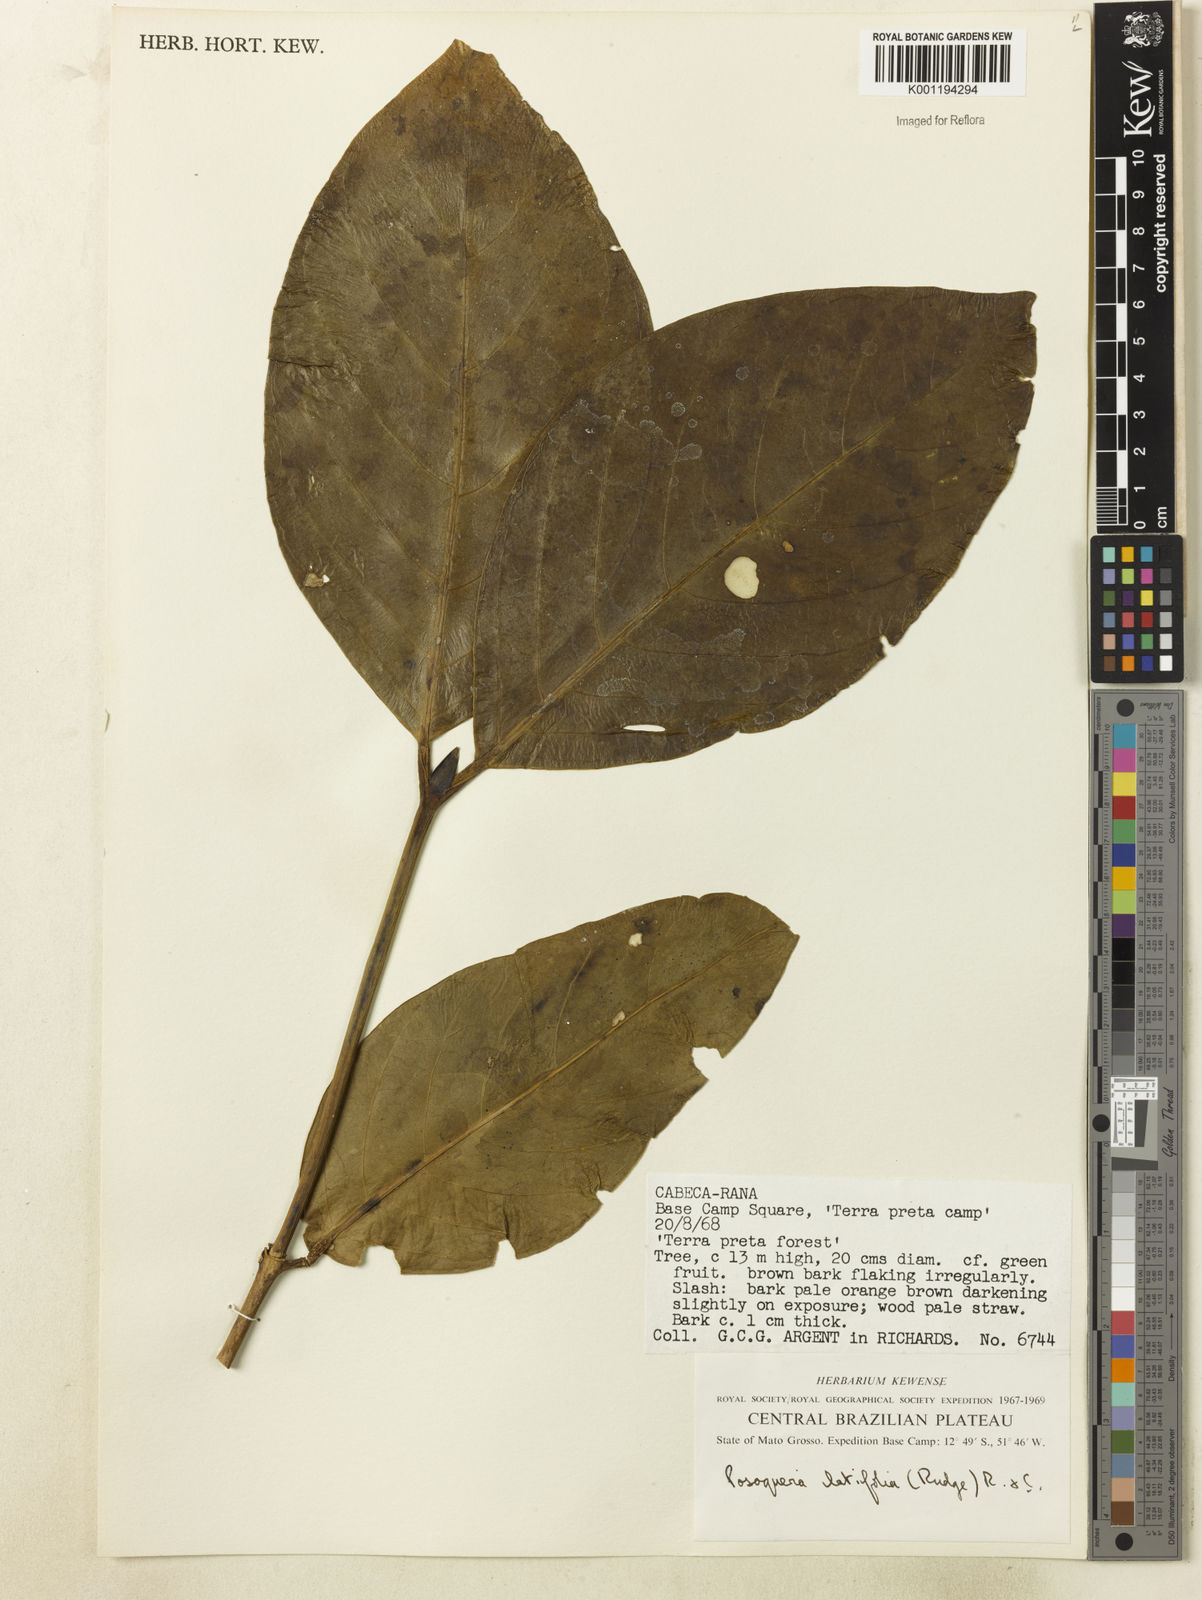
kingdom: Plantae
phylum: Tracheophyta
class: Magnoliopsida
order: Gentianales
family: Rubiaceae
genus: Posoqueria
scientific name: Posoqueria latifolia
